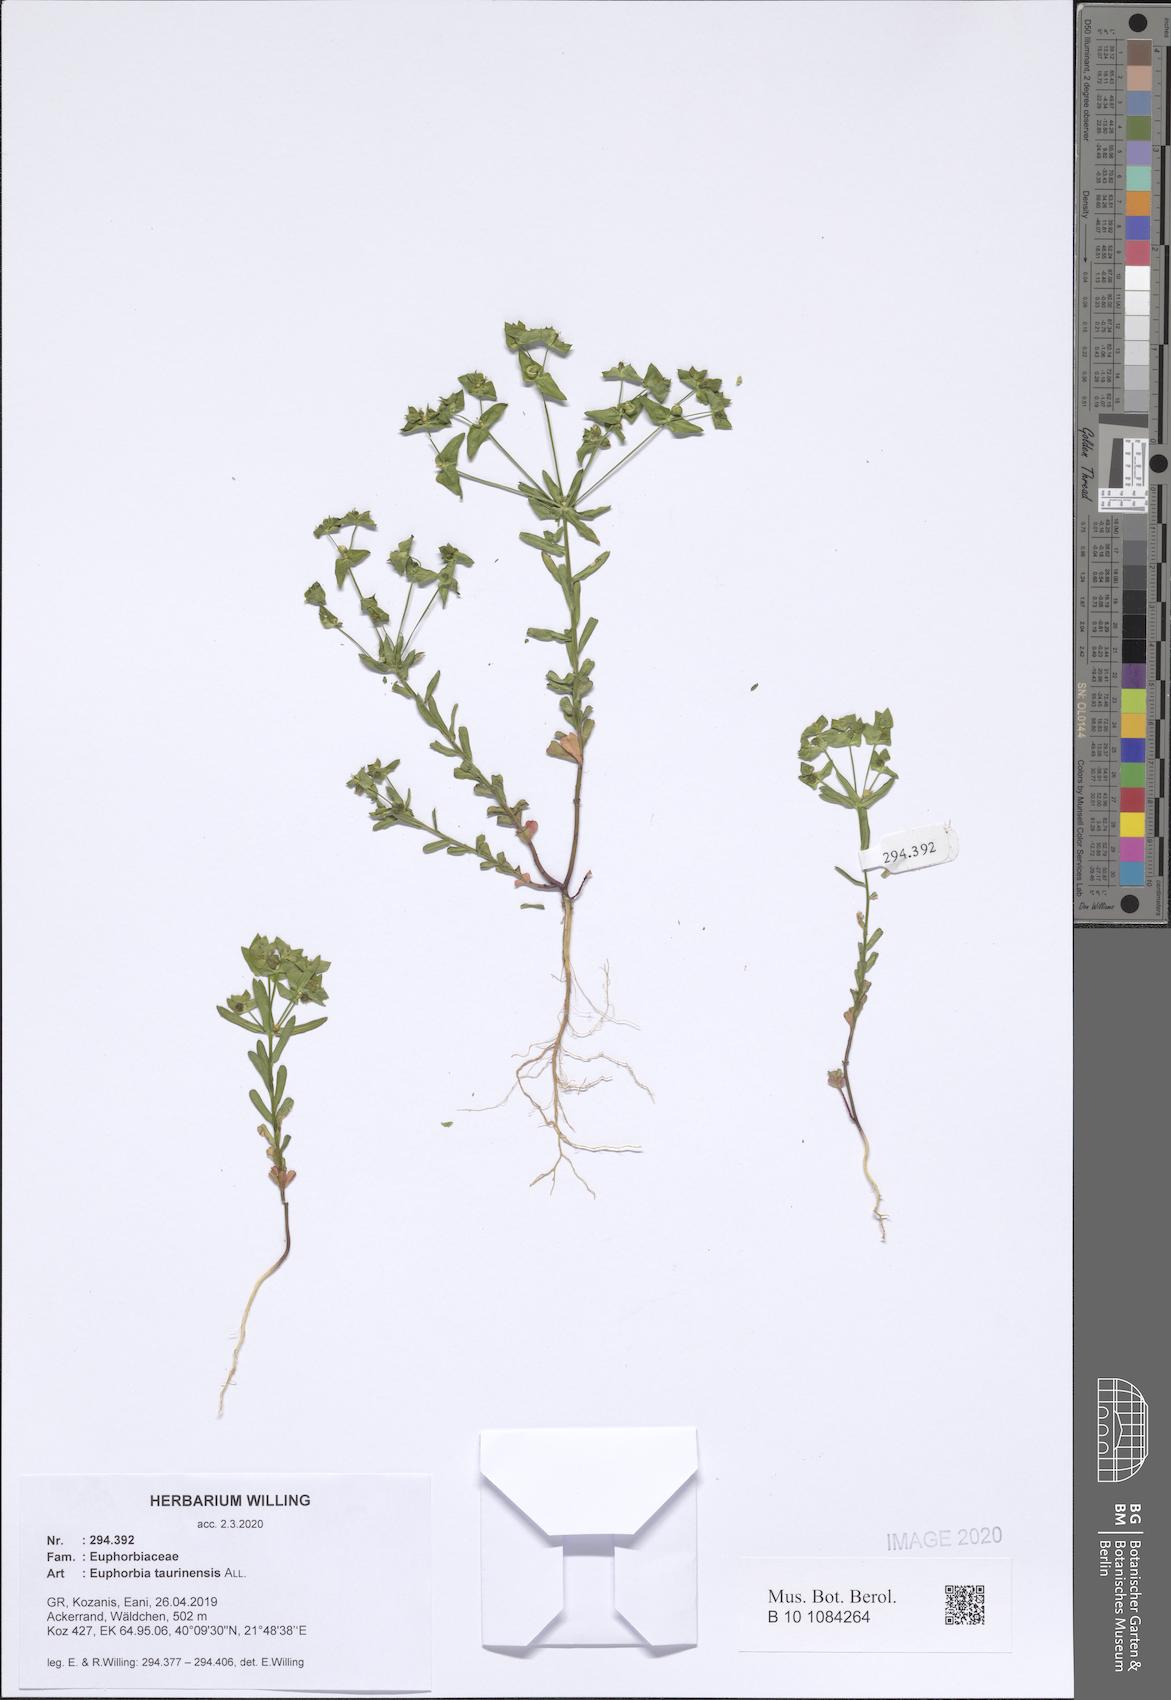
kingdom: Plantae
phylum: Tracheophyta
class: Magnoliopsida
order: Malpighiales
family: Euphorbiaceae
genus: Euphorbia
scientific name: Euphorbia taurinensis
